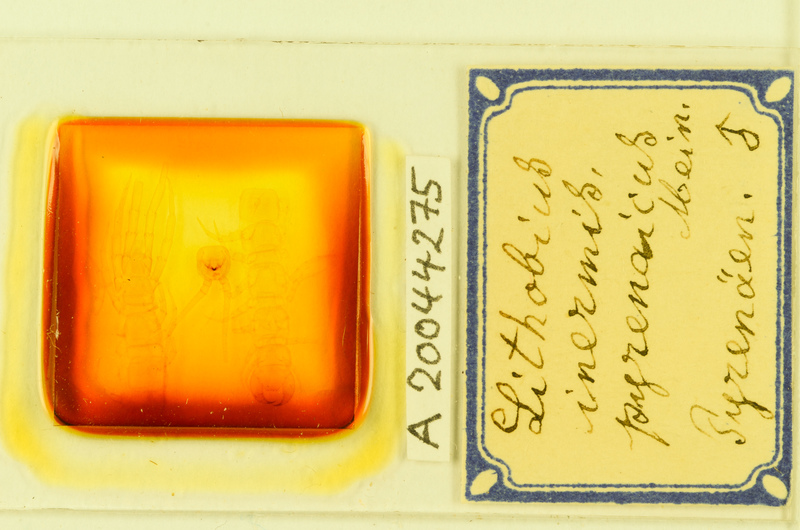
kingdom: Animalia
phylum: Arthropoda
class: Chilopoda
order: Lithobiomorpha
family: Lithobiidae
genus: Lithobius
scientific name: Lithobius pyrenaicus
